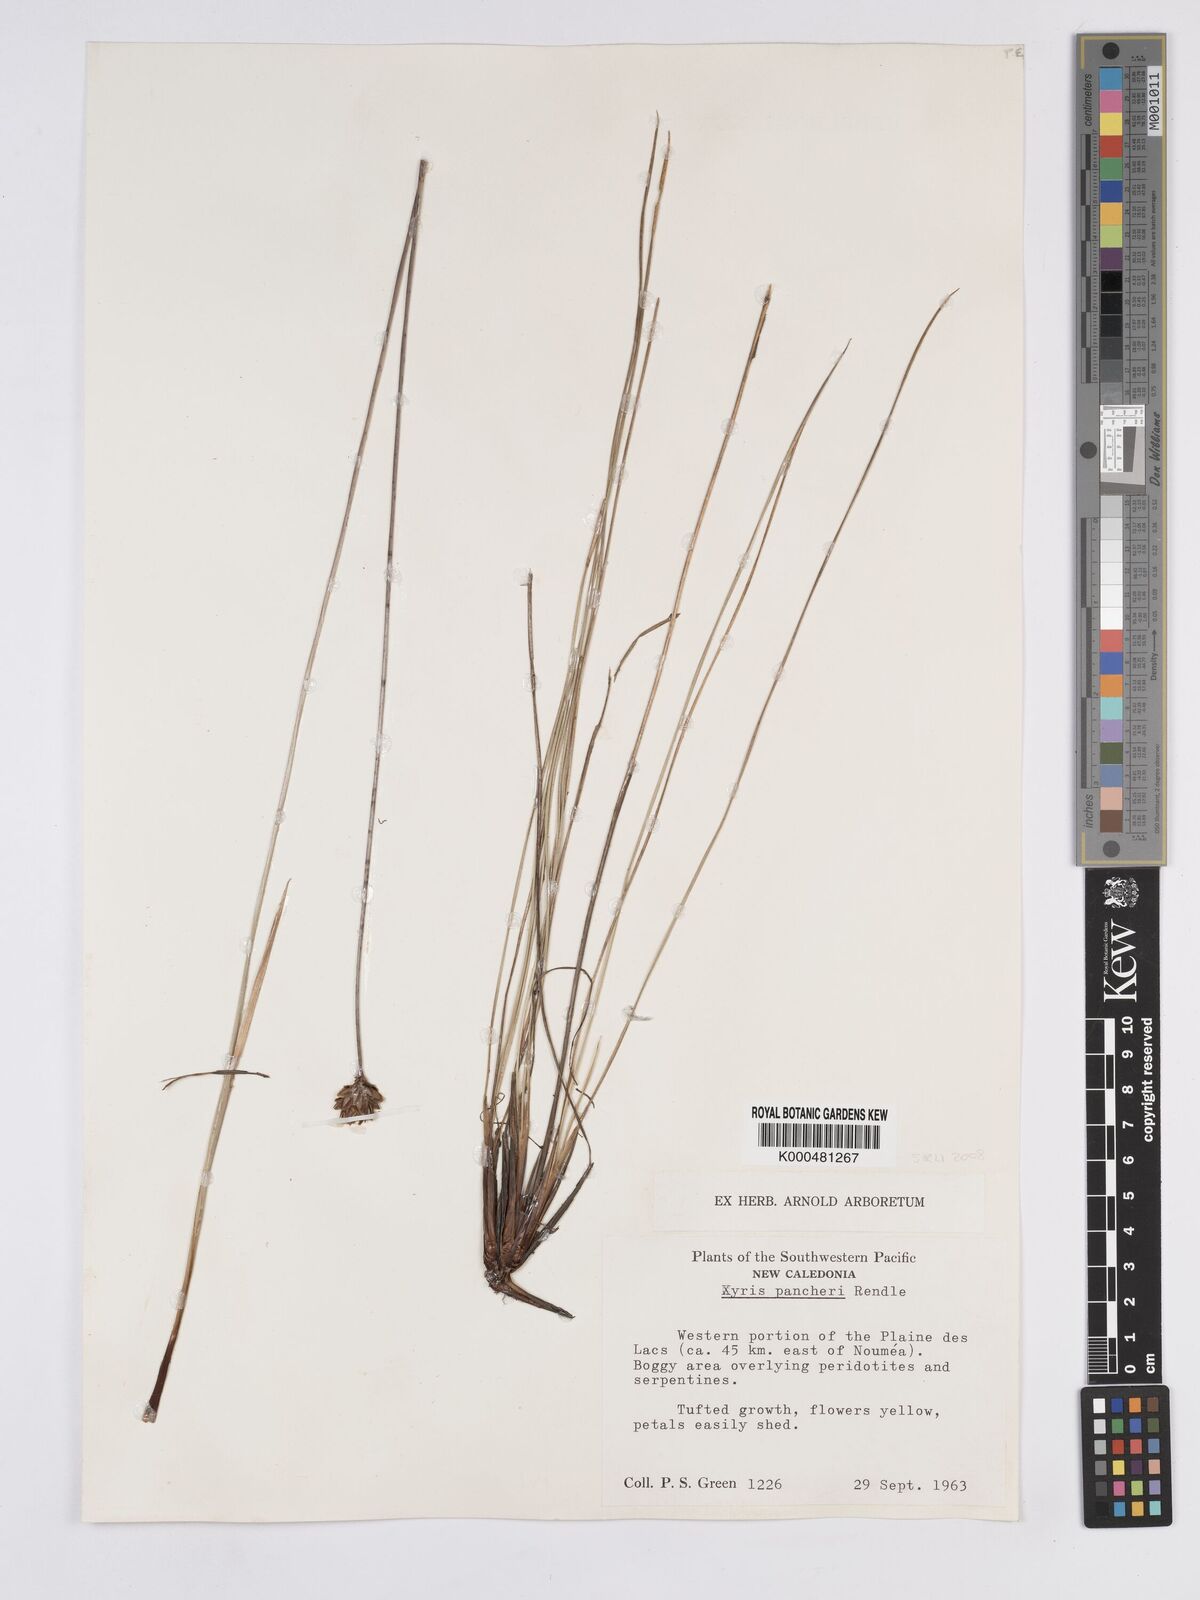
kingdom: Plantae
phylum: Tracheophyta
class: Liliopsida
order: Poales
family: Xyridaceae
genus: Xyris
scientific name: Xyris pancheri
